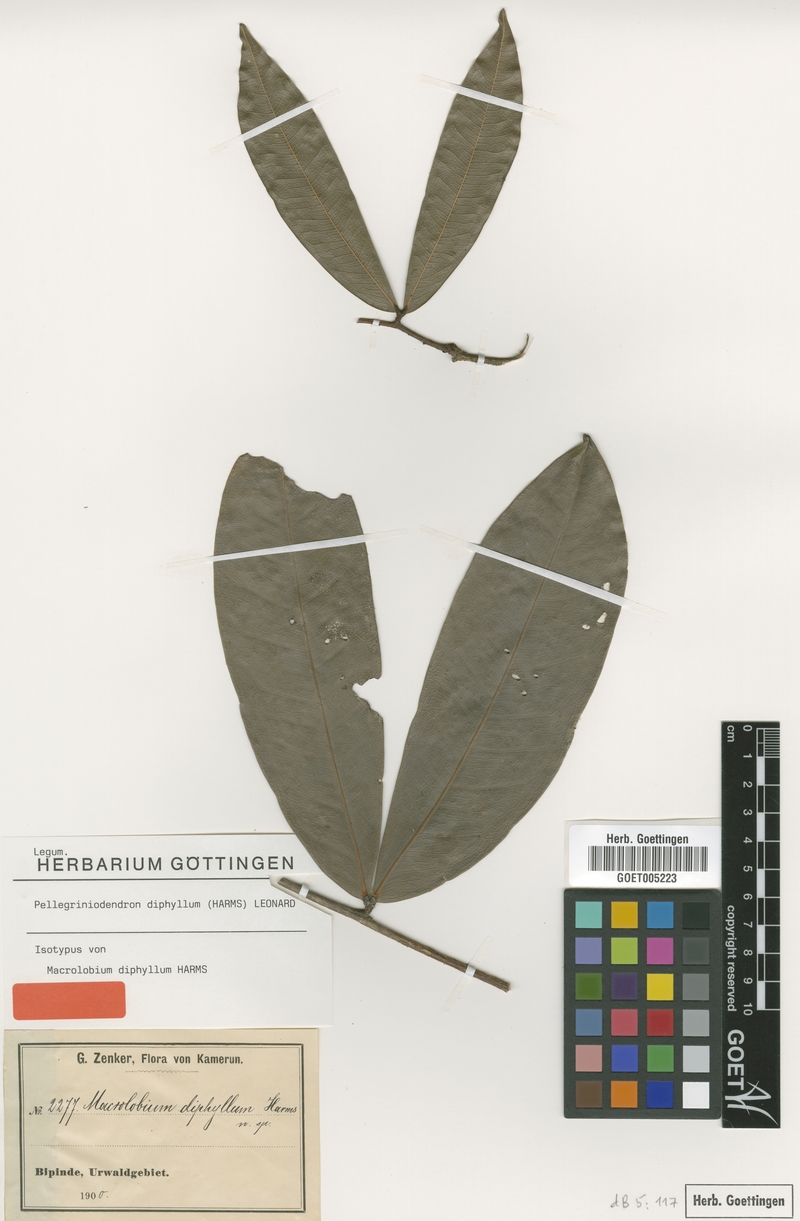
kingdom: Plantae
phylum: Tracheophyta
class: Magnoliopsida
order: Fabales
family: Fabaceae
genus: Gilbertiodendron
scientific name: Gilbertiodendron diphyllum
